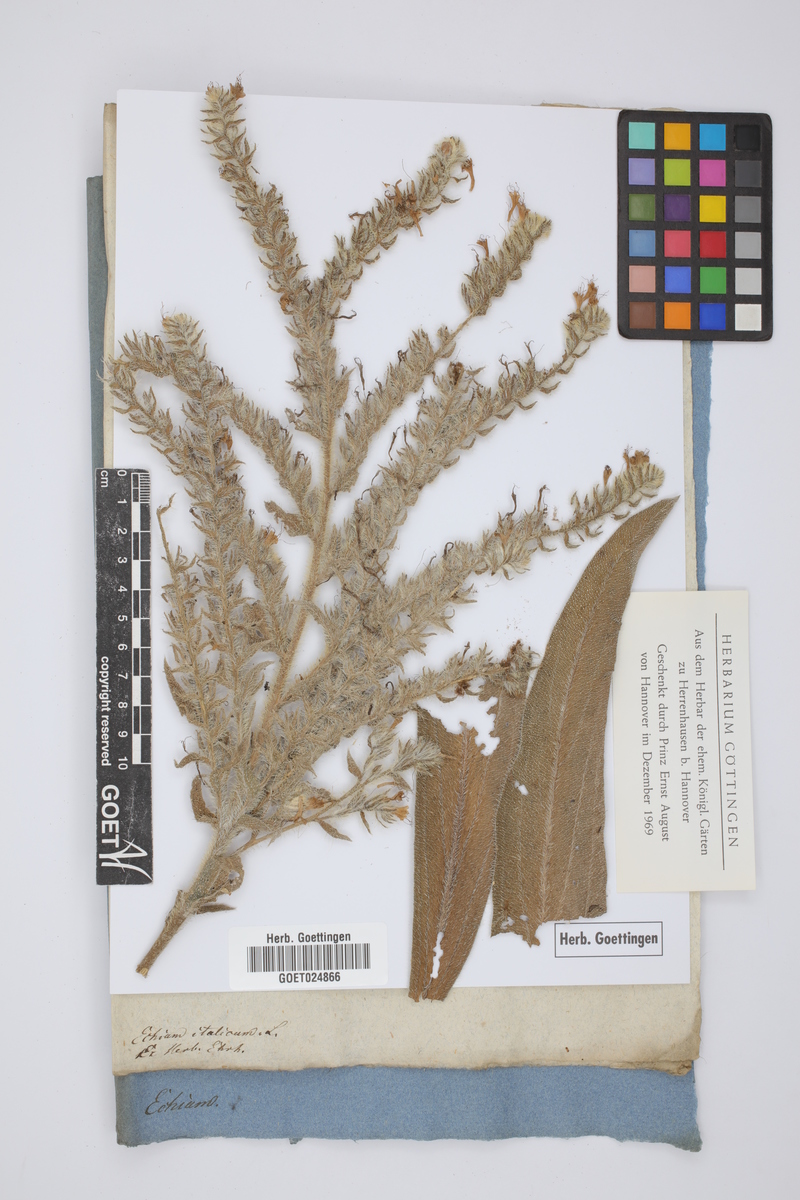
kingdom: Plantae
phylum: Tracheophyta
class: Magnoliopsida
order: Boraginales
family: Boraginaceae
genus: Echium
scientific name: Echium italicum
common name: Italian viper's bugloss
